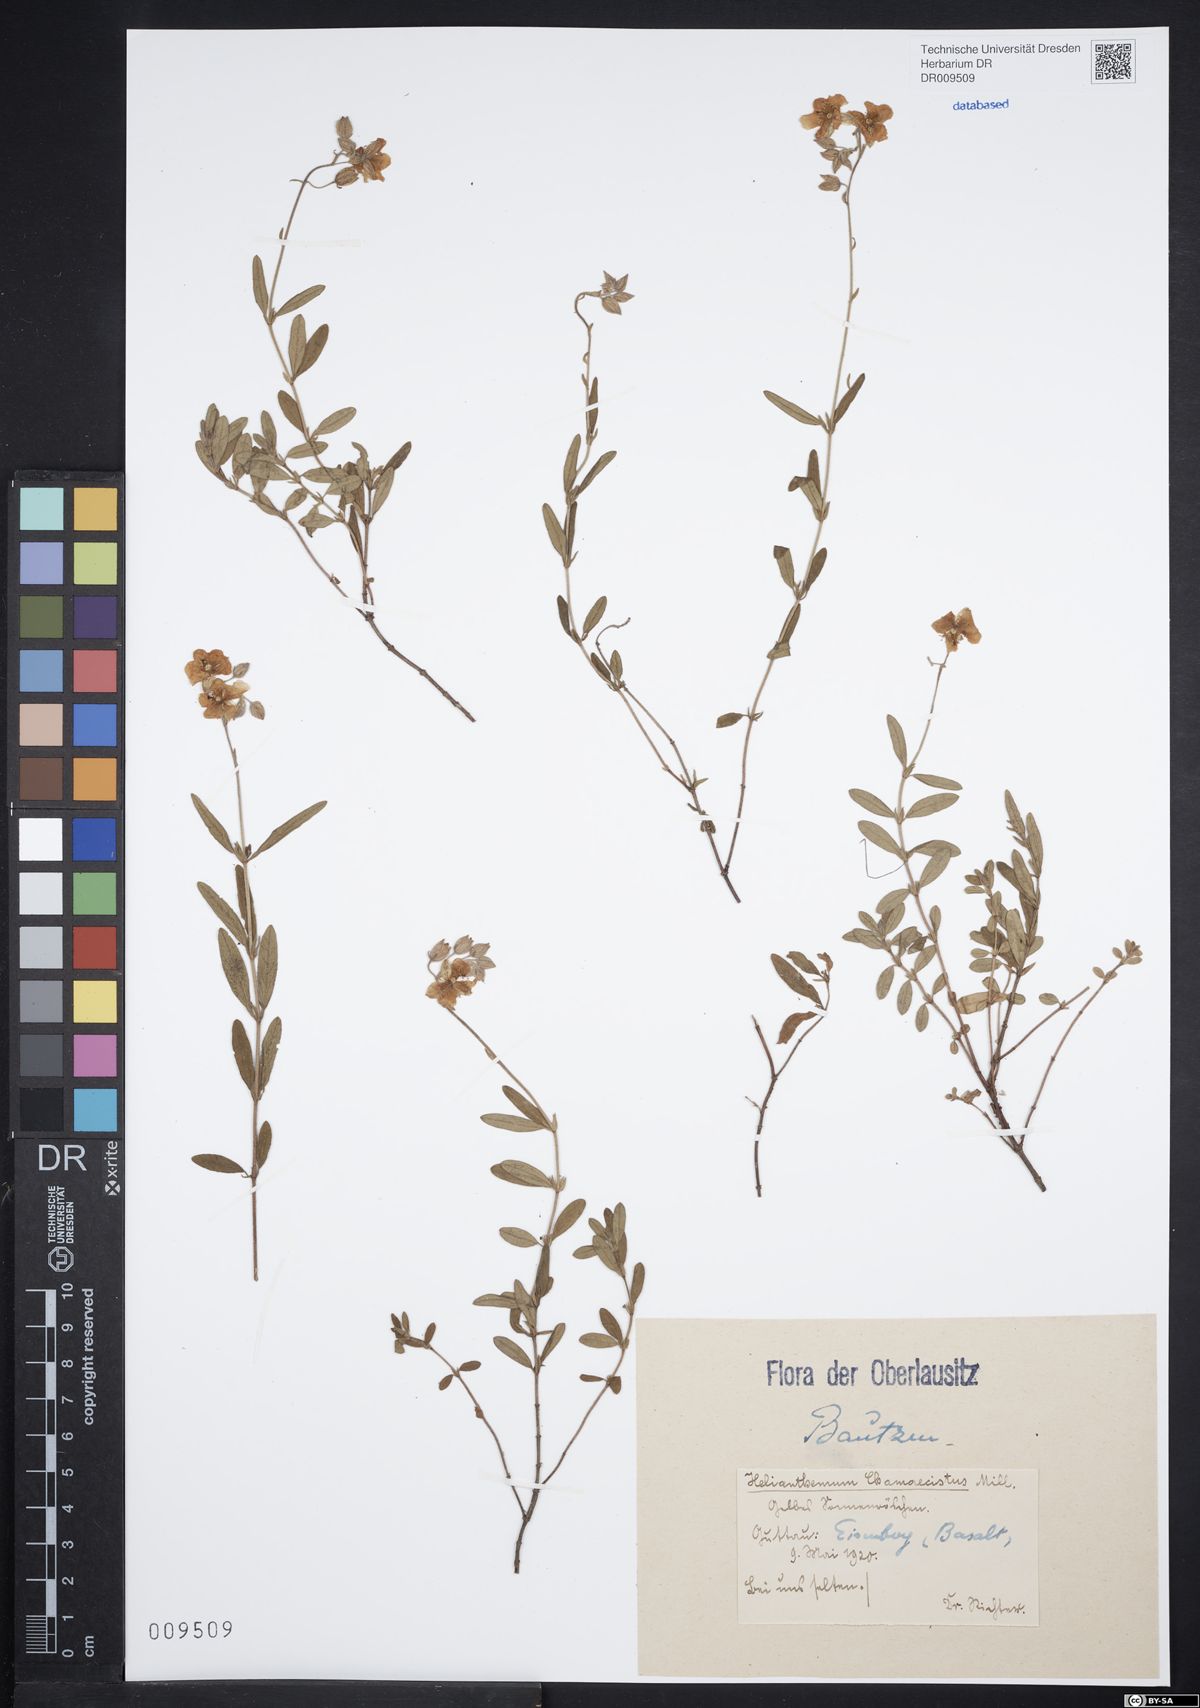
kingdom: Plantae
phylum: Tracheophyta
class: Magnoliopsida
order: Malvales
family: Cistaceae
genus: Helianthemum
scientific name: Helianthemum nummularium
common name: Common rock-rose
